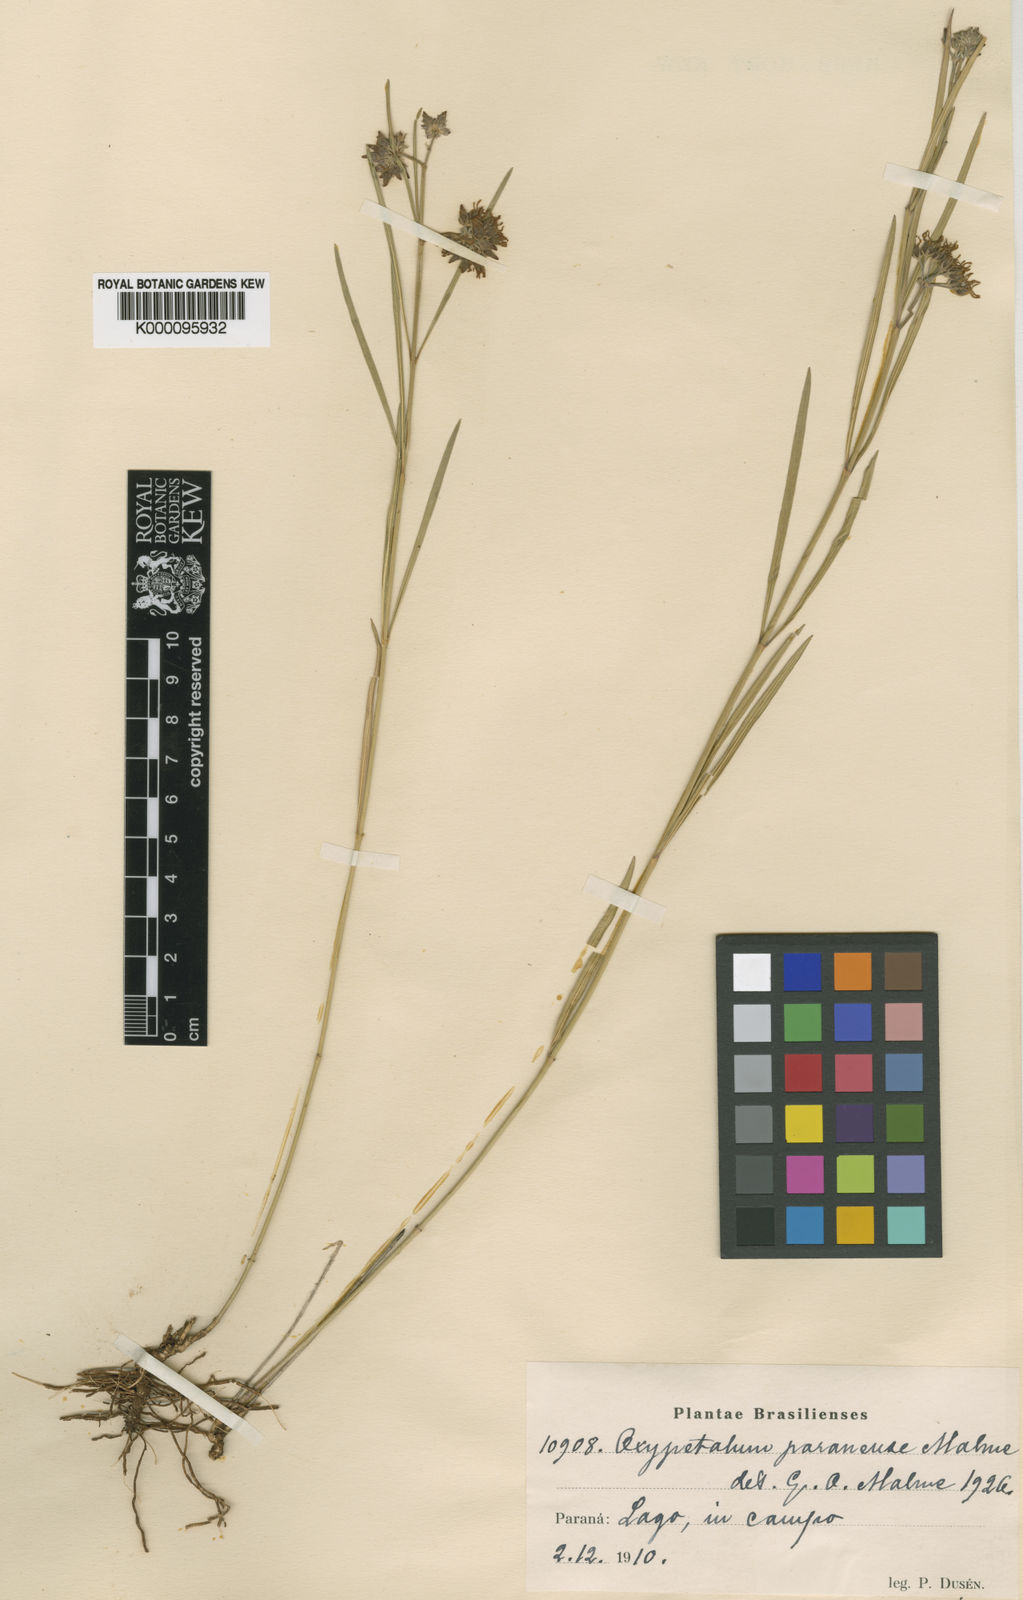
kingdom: Plantae
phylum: Tracheophyta
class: Magnoliopsida
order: Gentianales
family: Apocynaceae
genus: Oxypetalum
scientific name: Oxypetalum chodatianum
